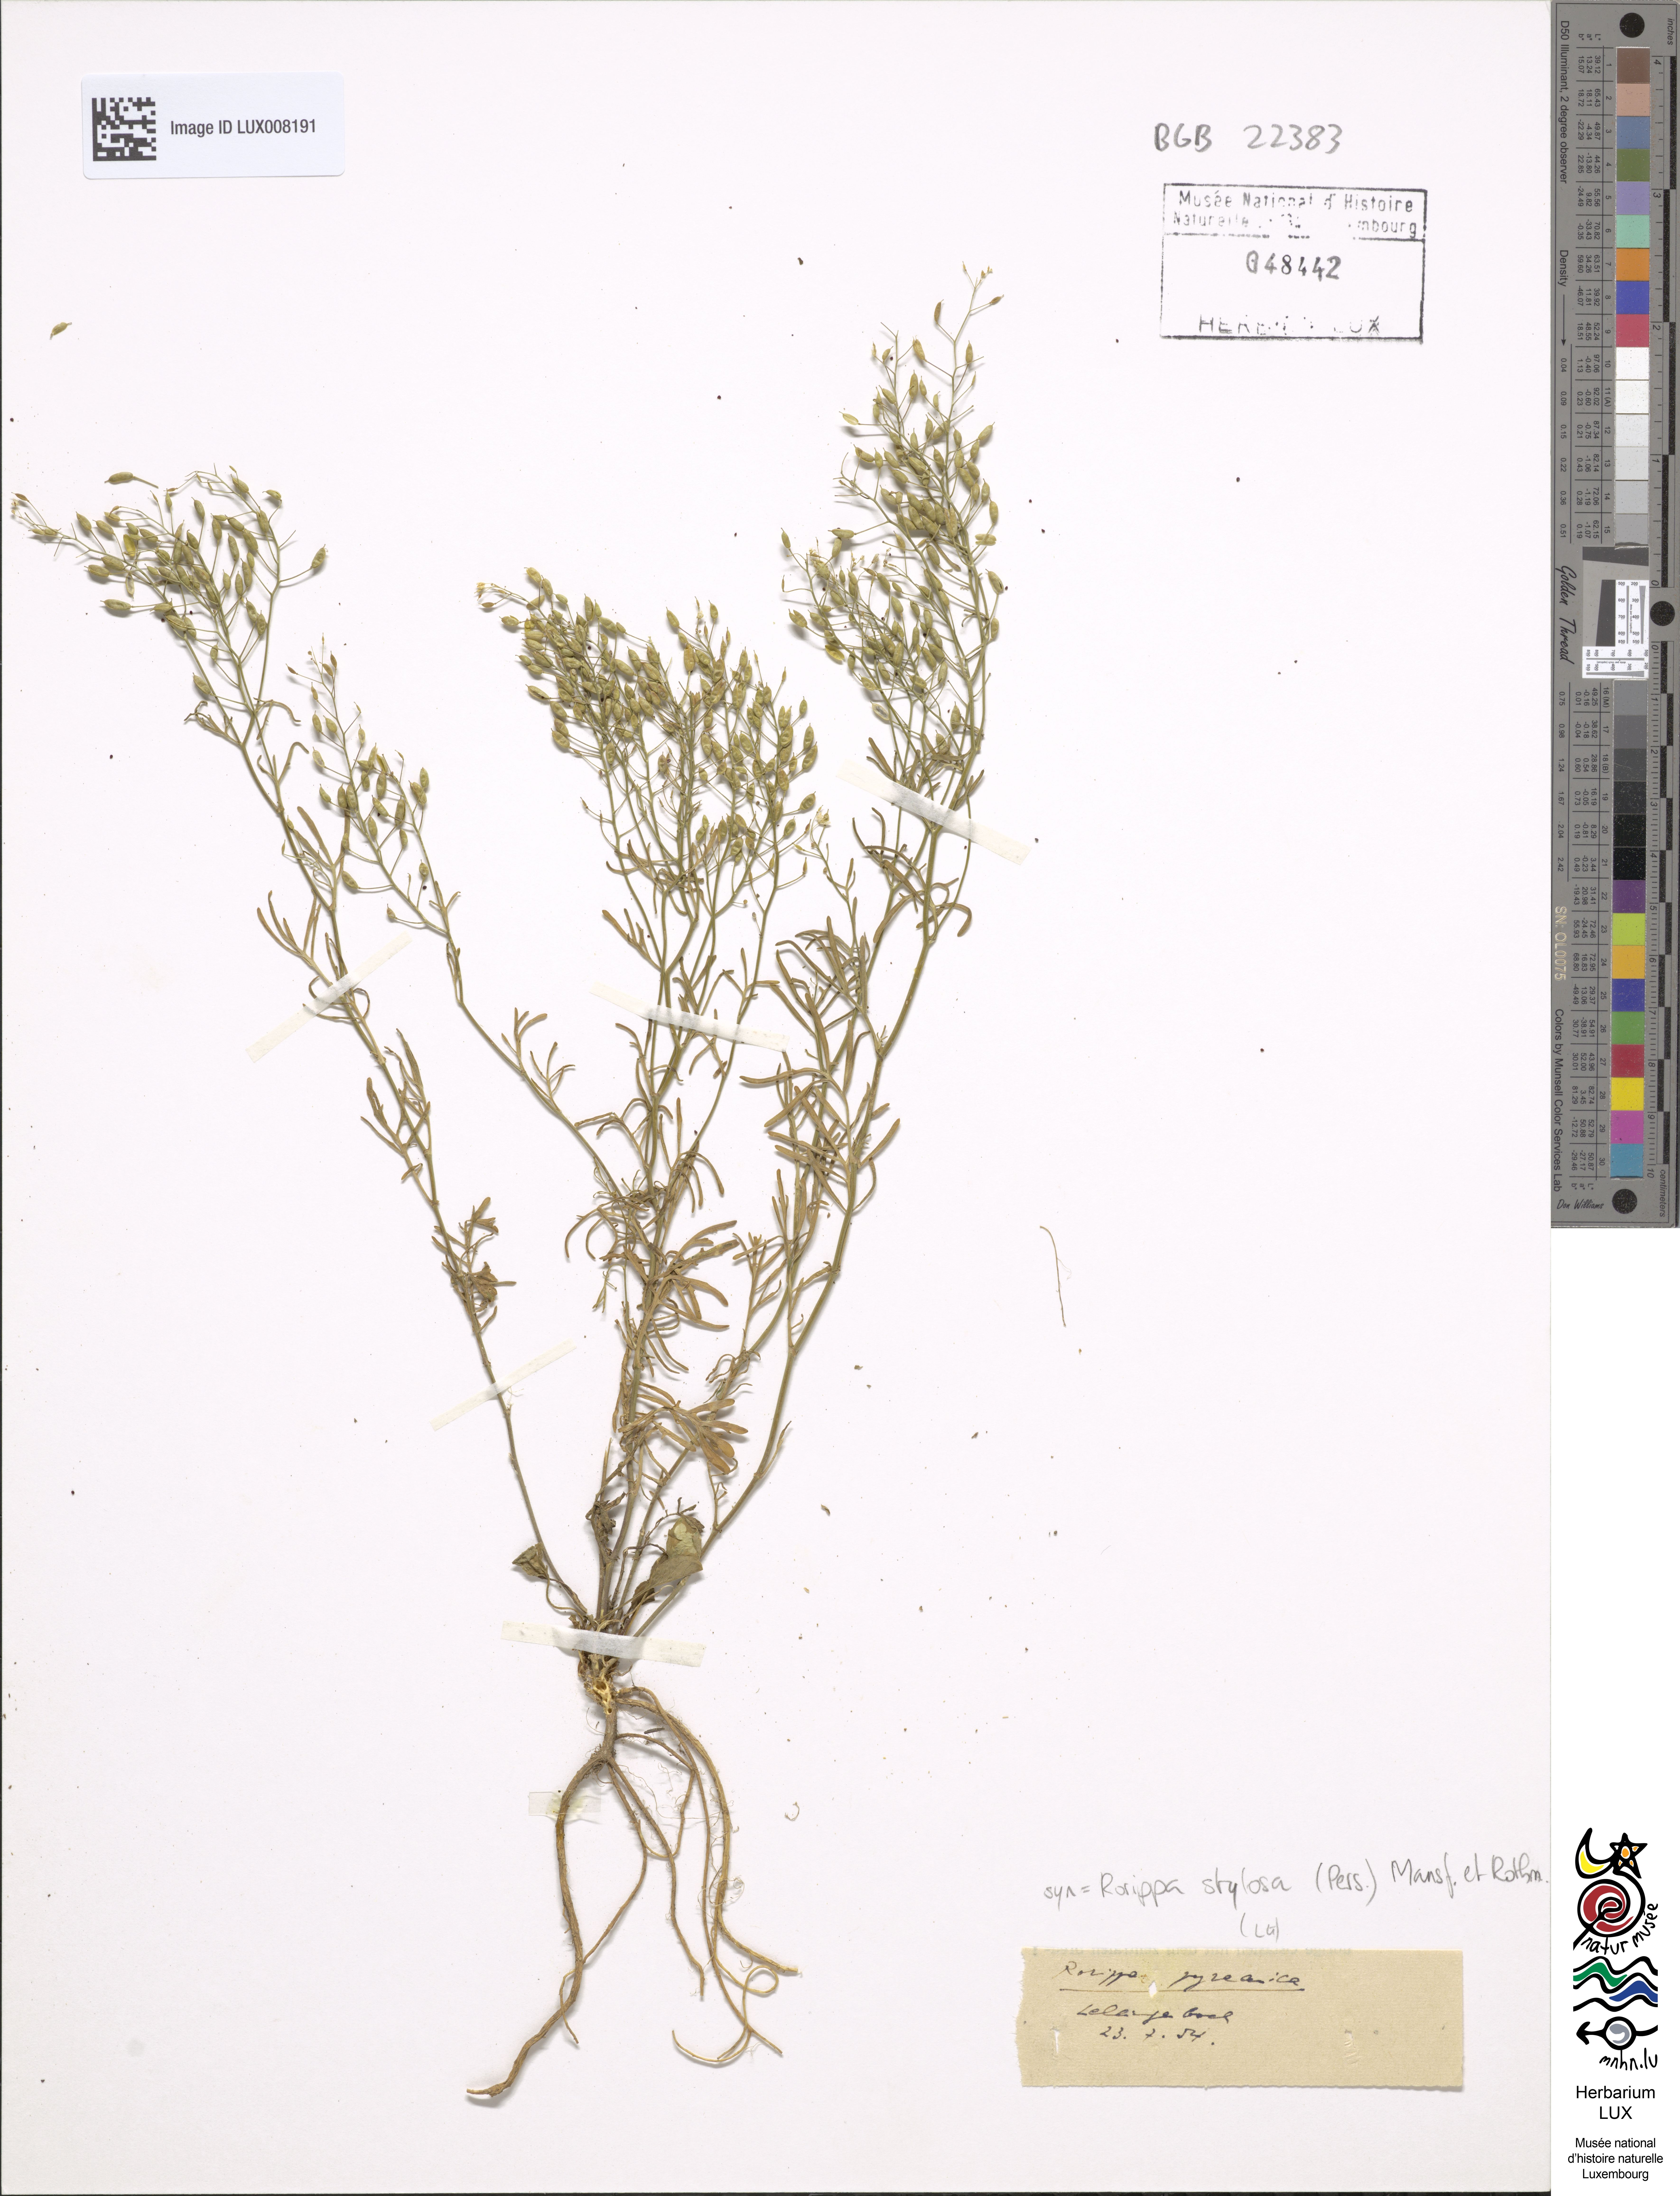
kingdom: Plantae
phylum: Tracheophyta
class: Magnoliopsida
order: Brassicales
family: Brassicaceae
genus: Rorippa
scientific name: Rorippa pyrenaica
